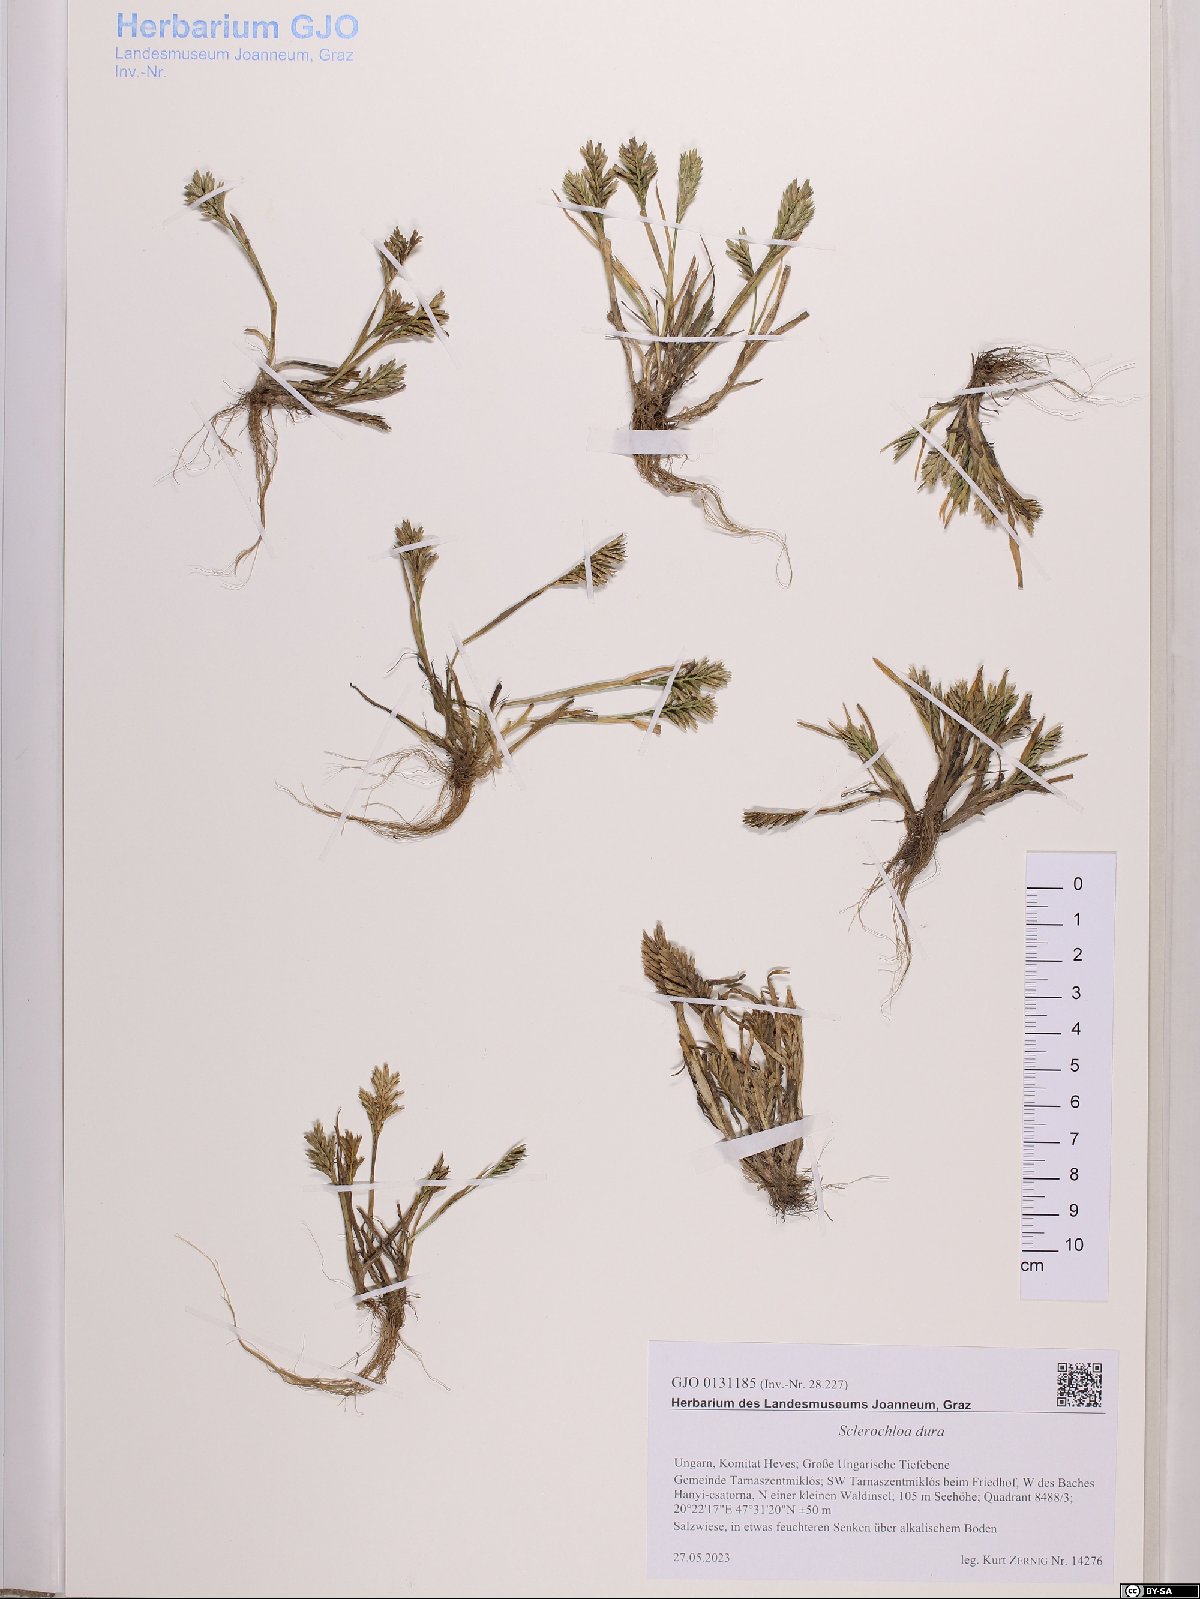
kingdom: Plantae
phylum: Tracheophyta
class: Liliopsida
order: Poales
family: Poaceae
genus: Sclerochloa
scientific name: Sclerochloa dura
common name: Common hardgrass
